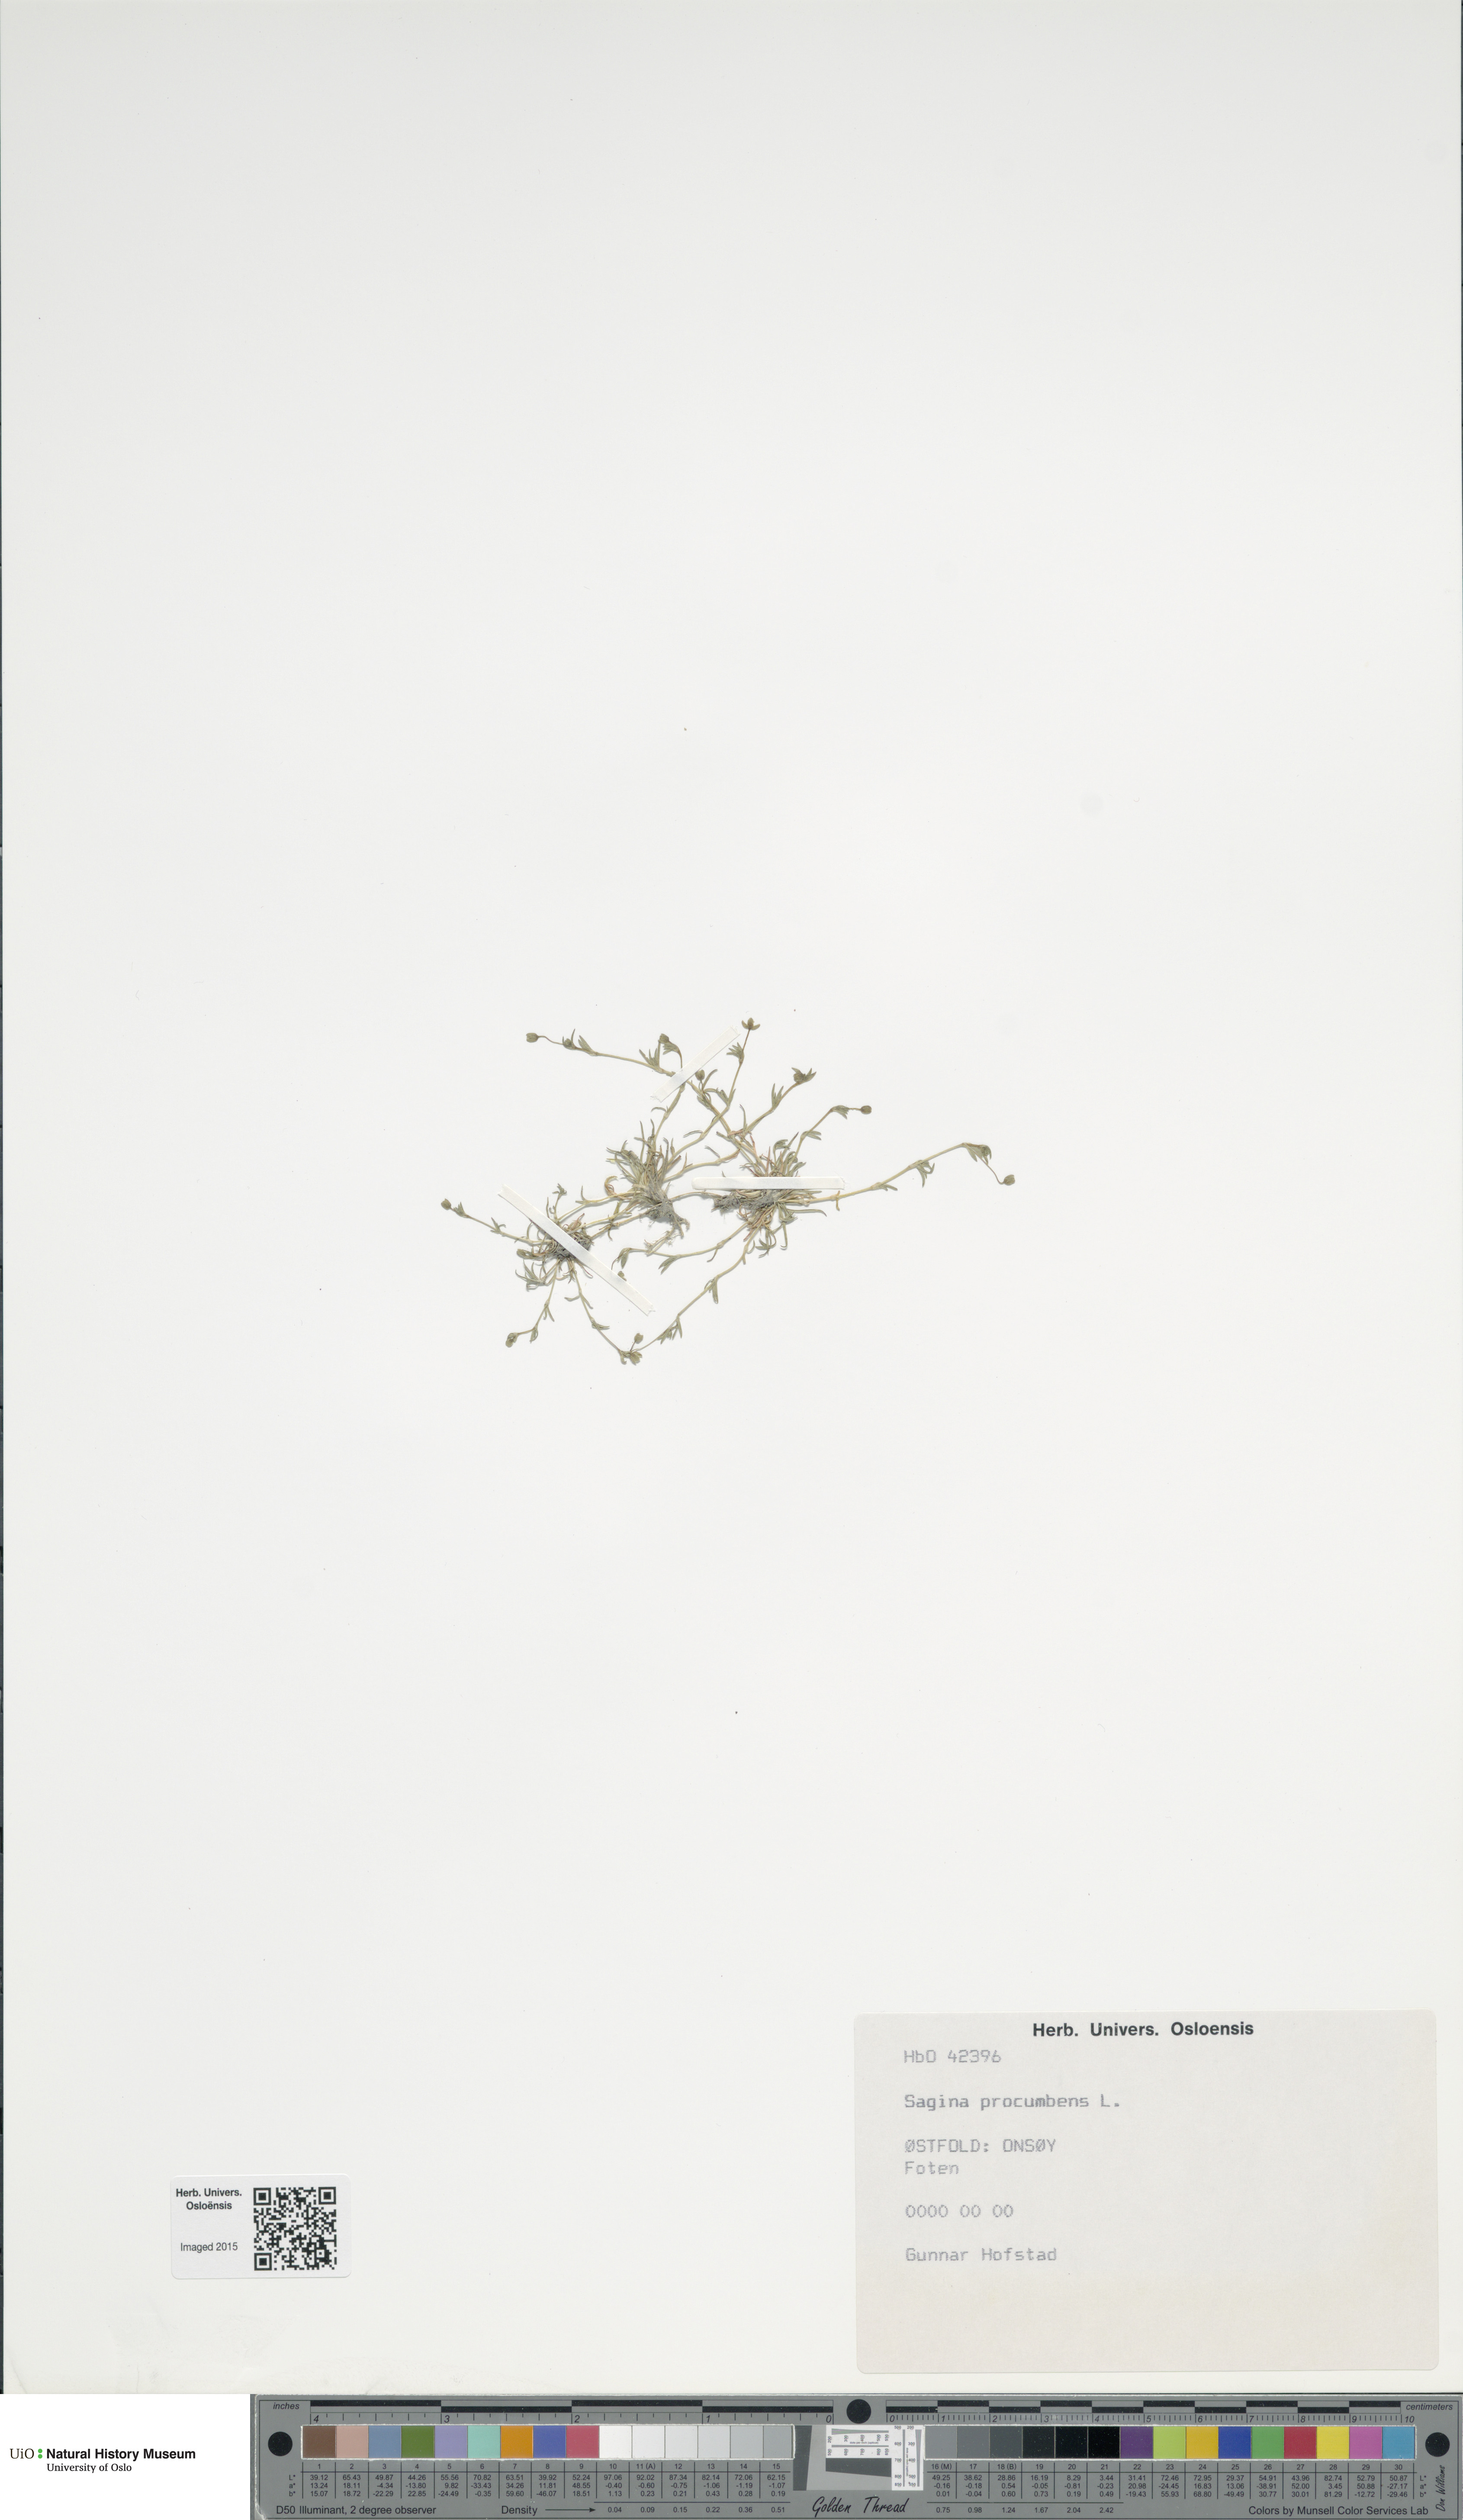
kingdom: Plantae
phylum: Tracheophyta
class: Magnoliopsida
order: Caryophyllales
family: Caryophyllaceae
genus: Sagina
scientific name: Sagina procumbens
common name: Procumbent pearlwort
